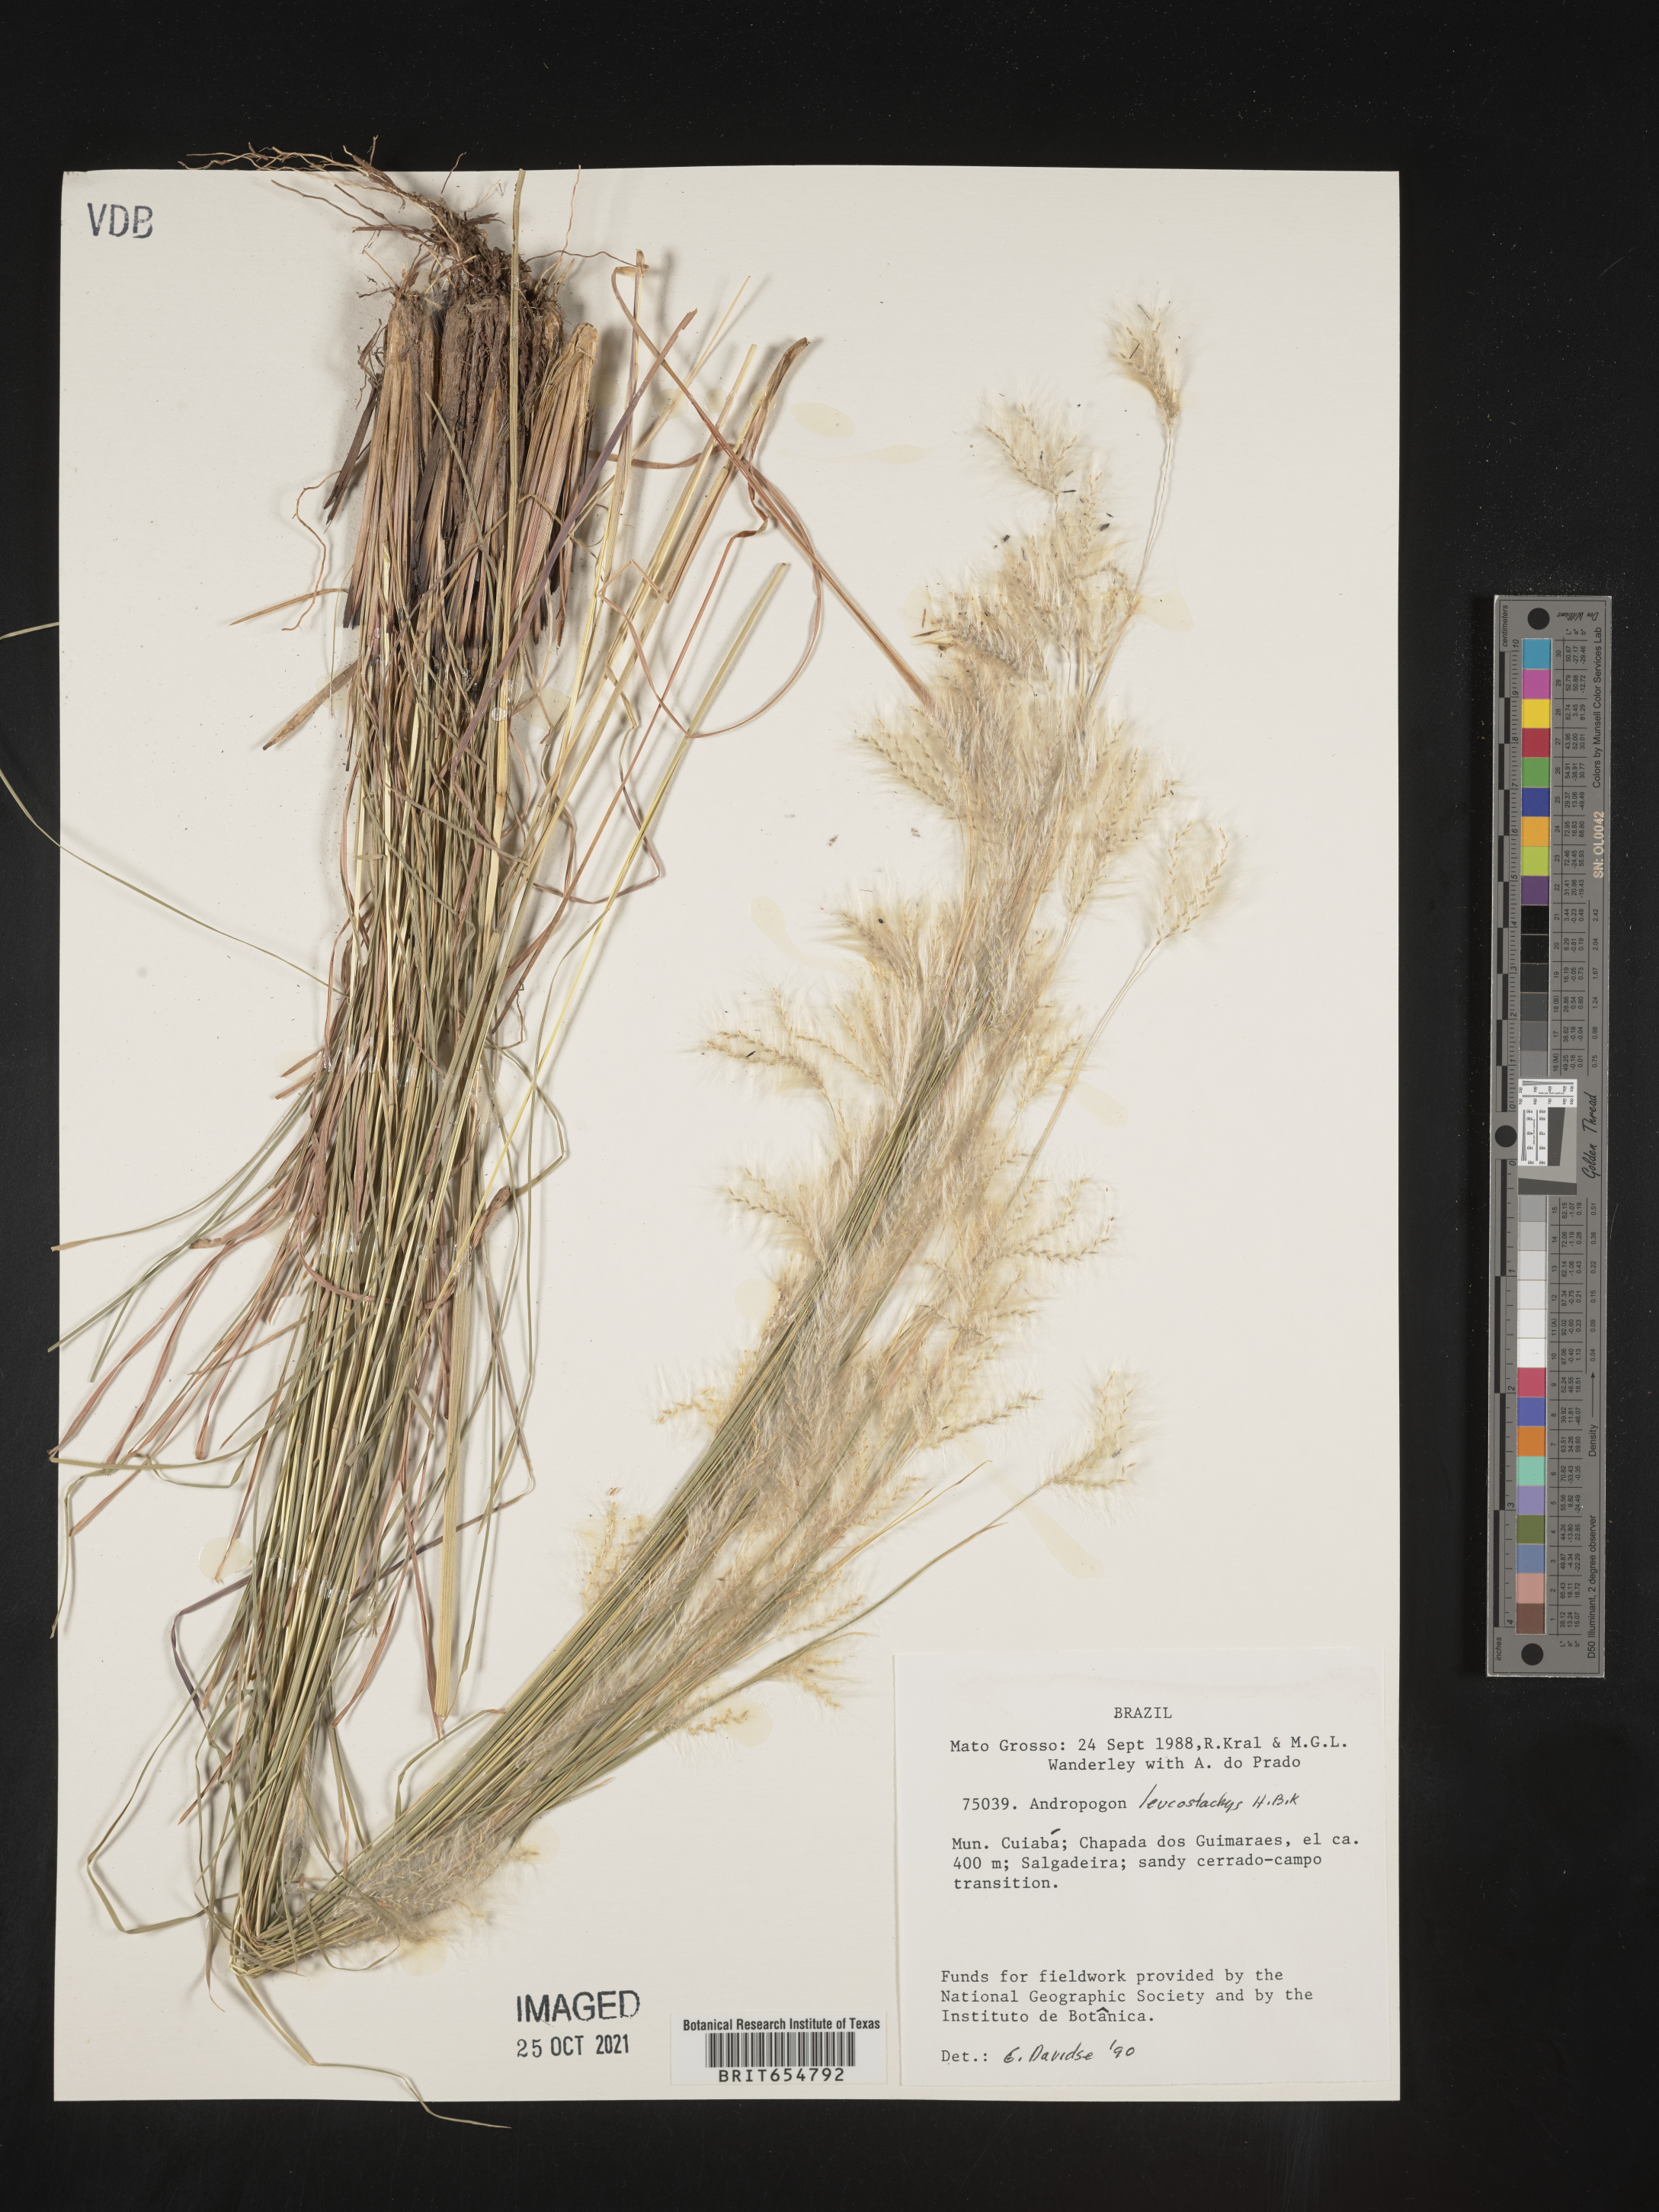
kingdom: Plantae
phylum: Tracheophyta
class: Liliopsida
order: Poales
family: Poaceae
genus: Andropogon
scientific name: Andropogon
